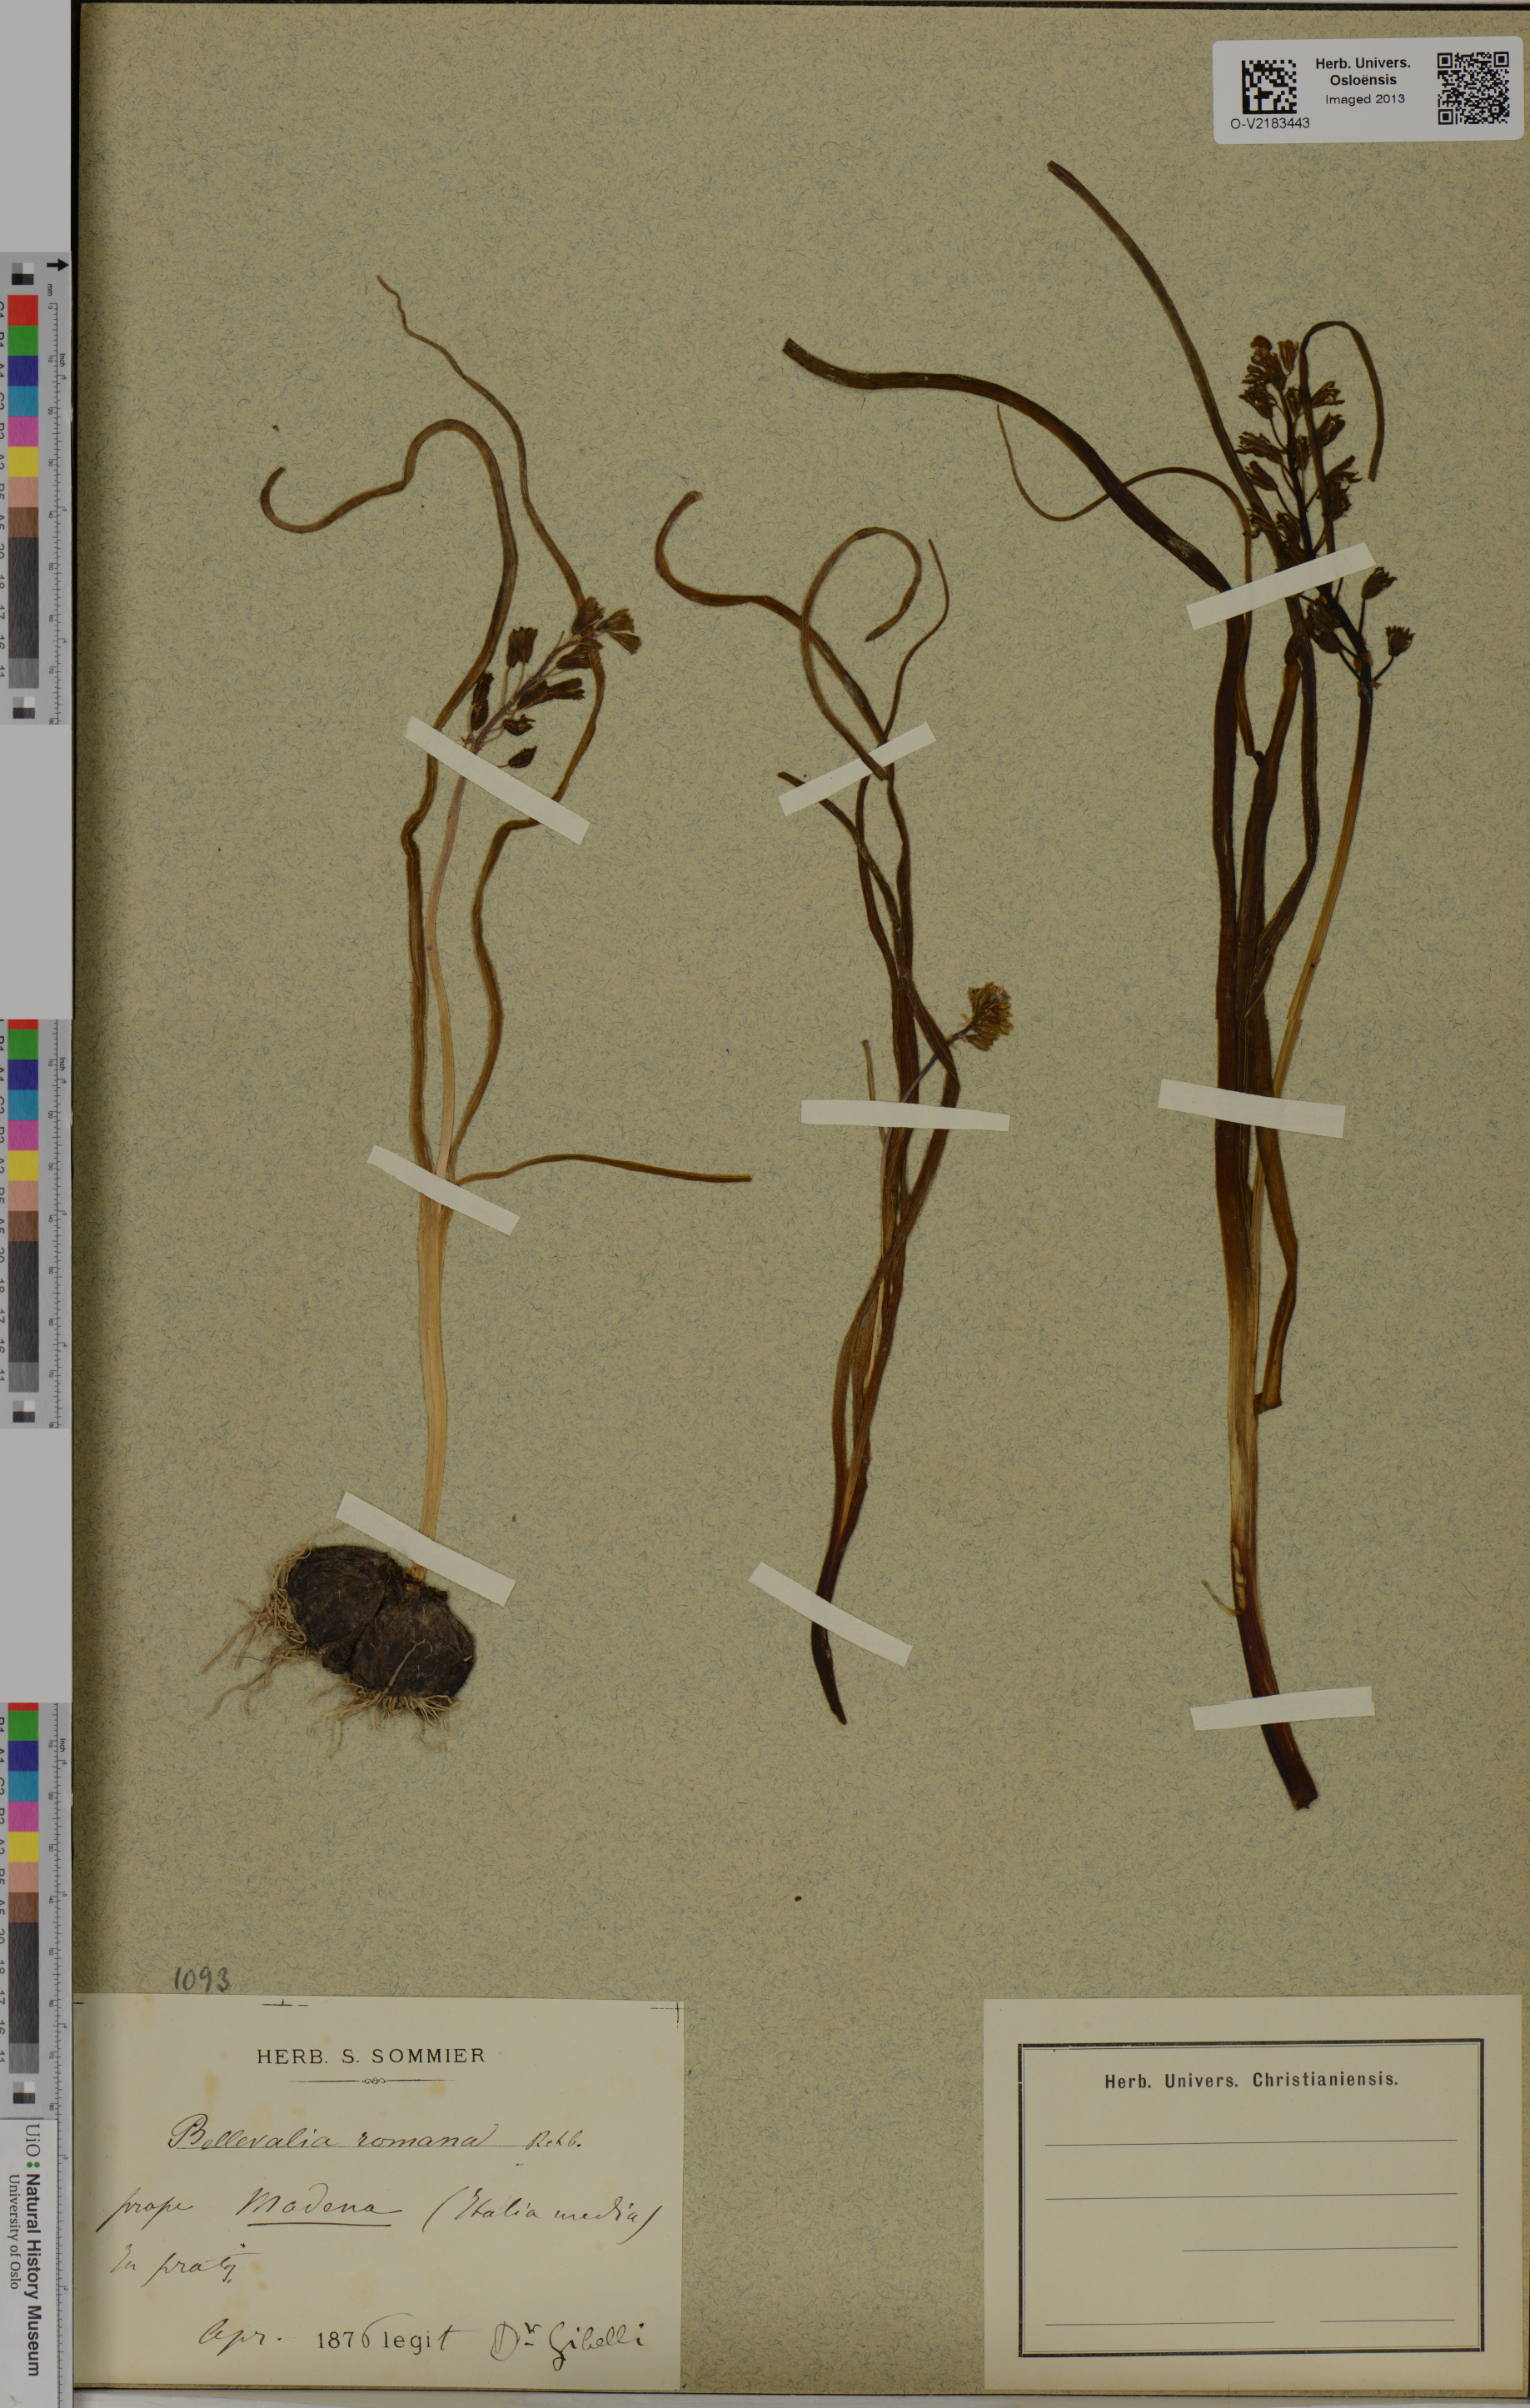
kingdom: Plantae
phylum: Tracheophyta
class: Liliopsida
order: Asparagales
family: Asparagaceae
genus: Bellevalia
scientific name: Bellevalia romana
